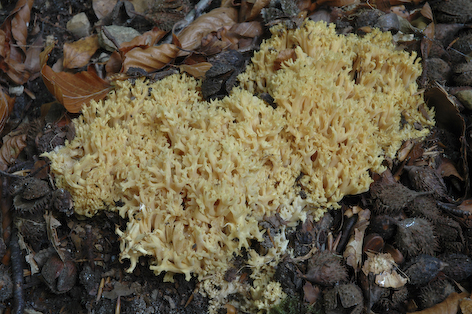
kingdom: Fungi
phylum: Basidiomycota
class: Agaricomycetes
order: Gomphales
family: Gomphaceae
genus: Ramaria
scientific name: Ramaria flavescens
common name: stor koralsvamp
